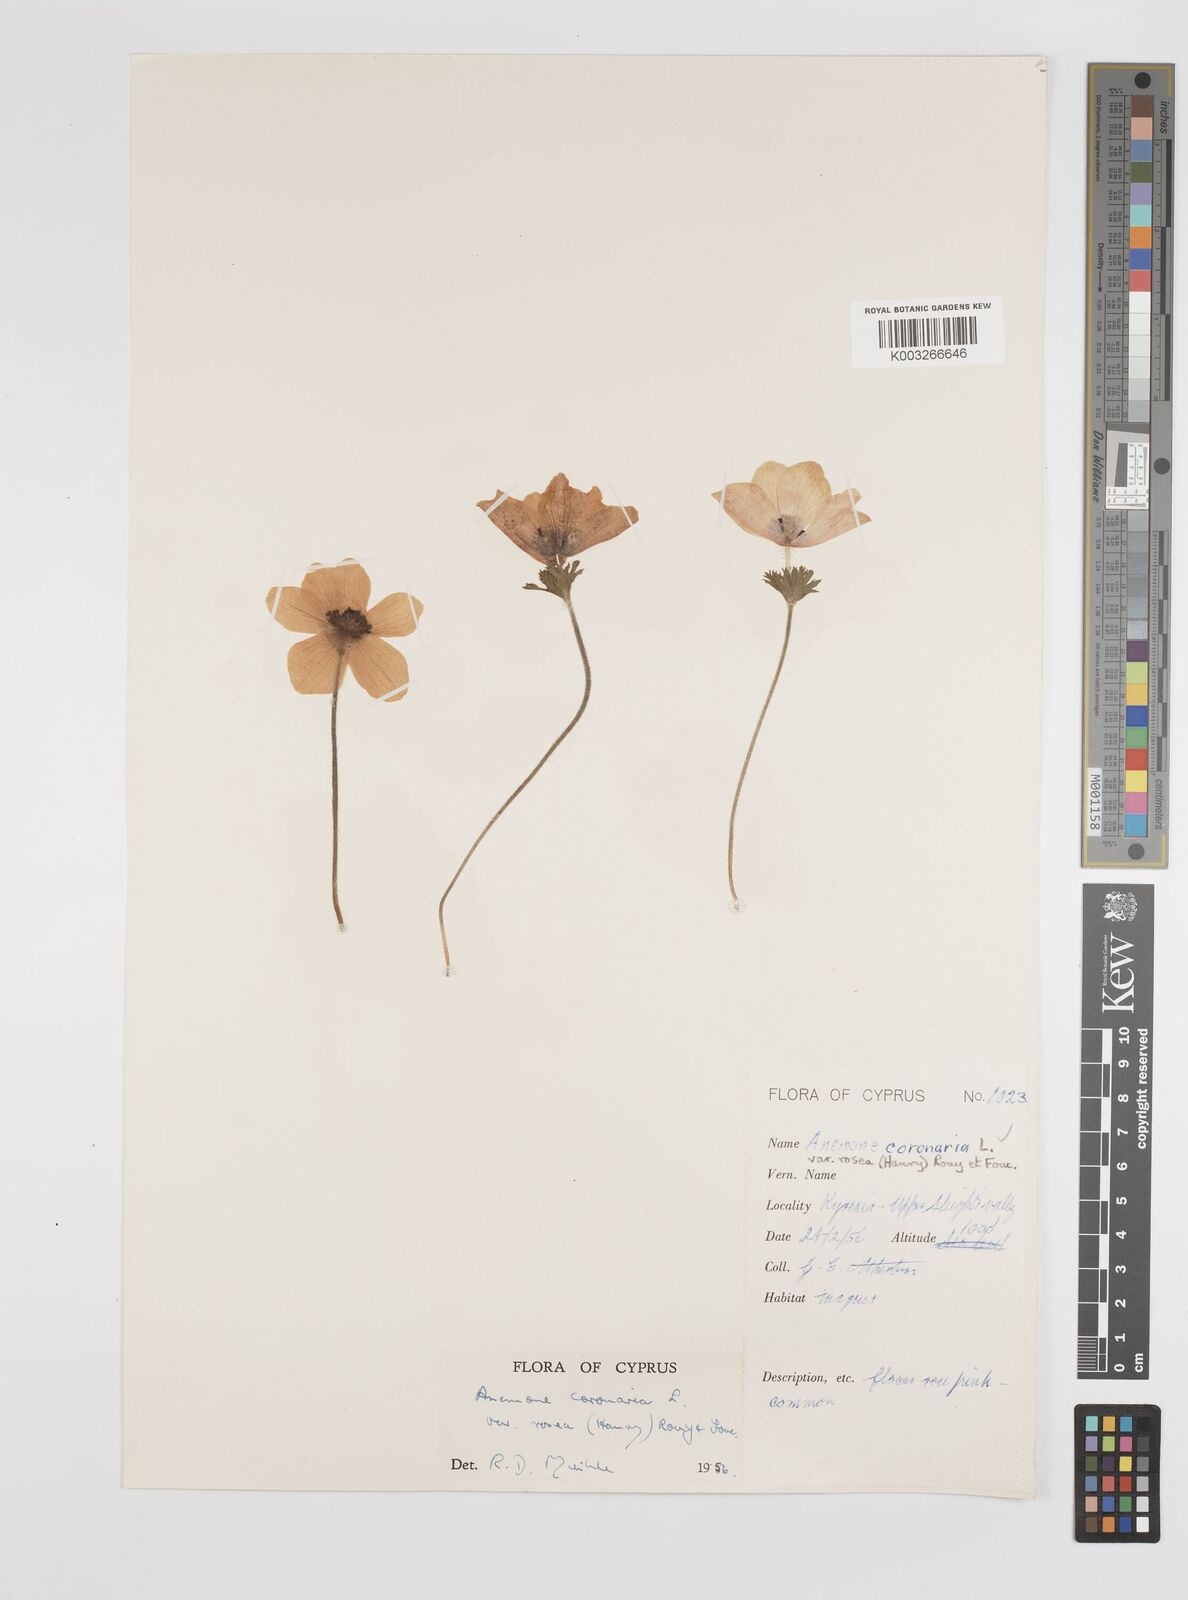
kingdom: Plantae
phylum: Tracheophyta
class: Magnoliopsida
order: Ranunculales
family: Ranunculaceae
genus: Anemone
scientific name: Anemone coronaria
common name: Poppy anemone
